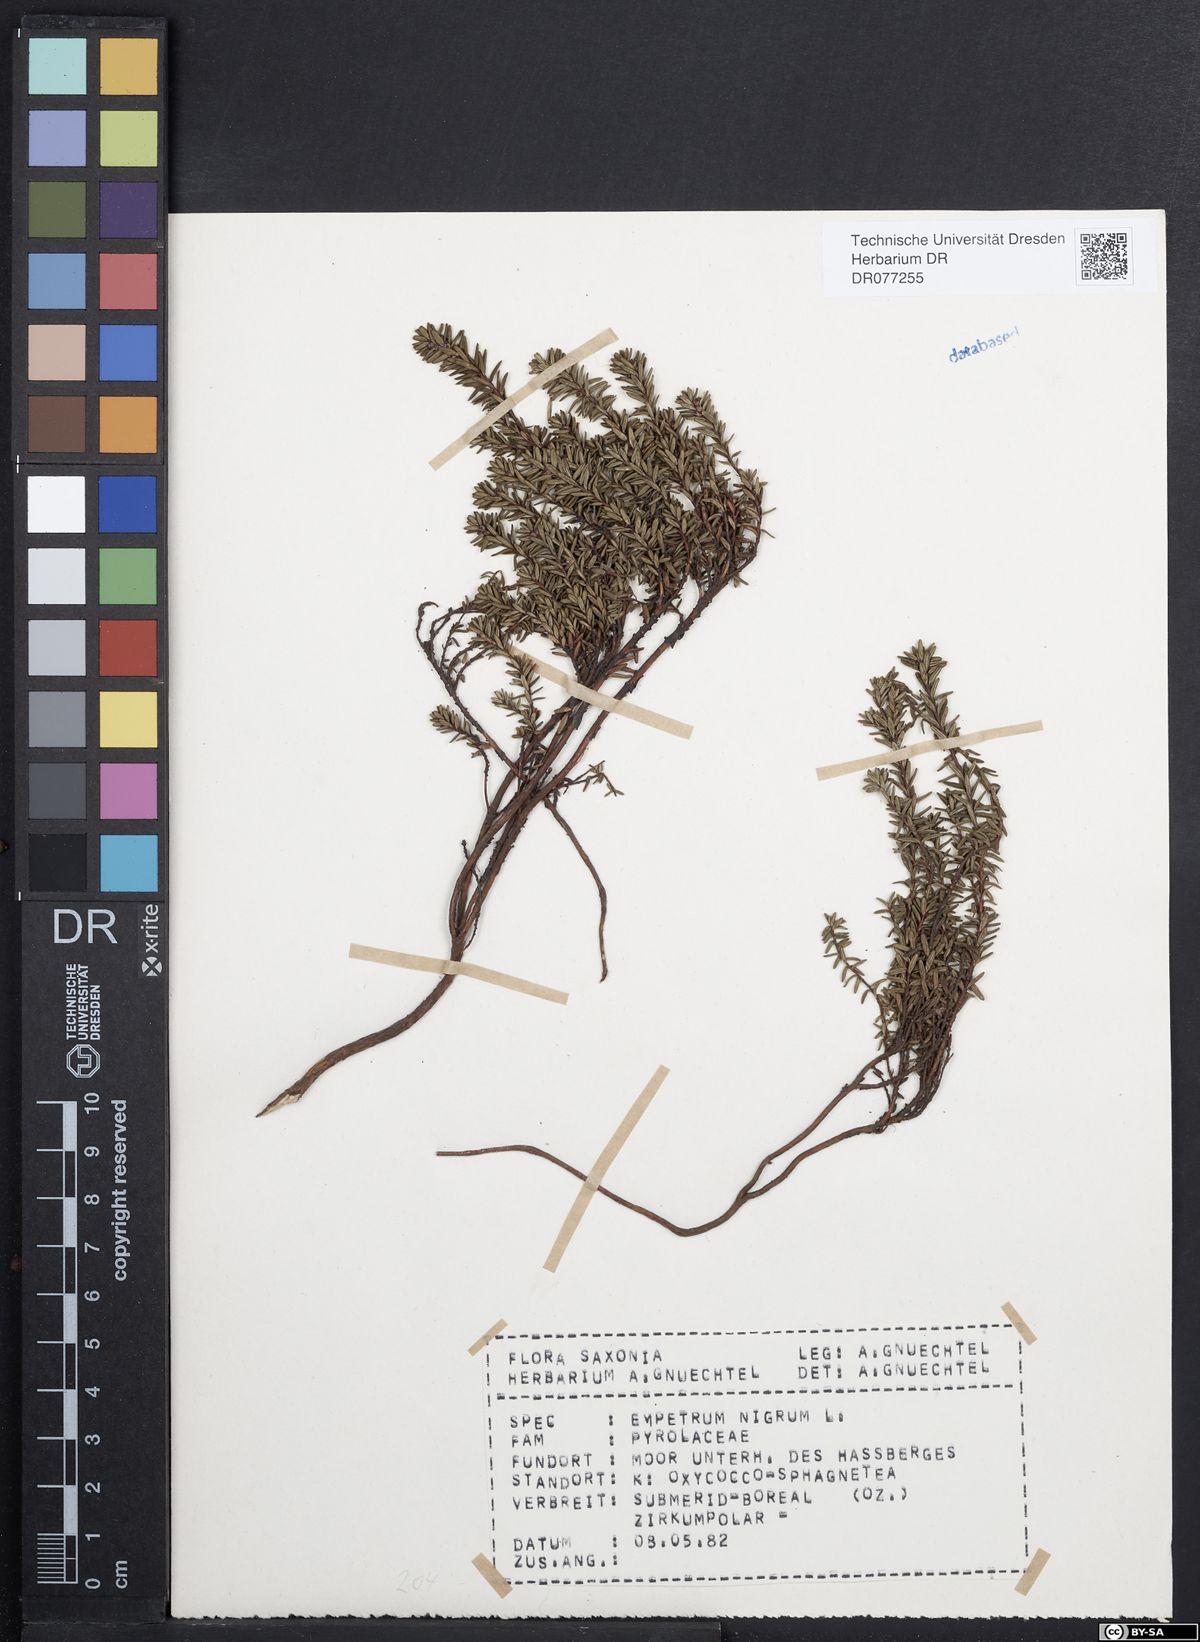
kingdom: Plantae
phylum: Tracheophyta
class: Magnoliopsida
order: Ericales
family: Ericaceae
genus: Empetrum
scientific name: Empetrum nigrum
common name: Black crowberry
